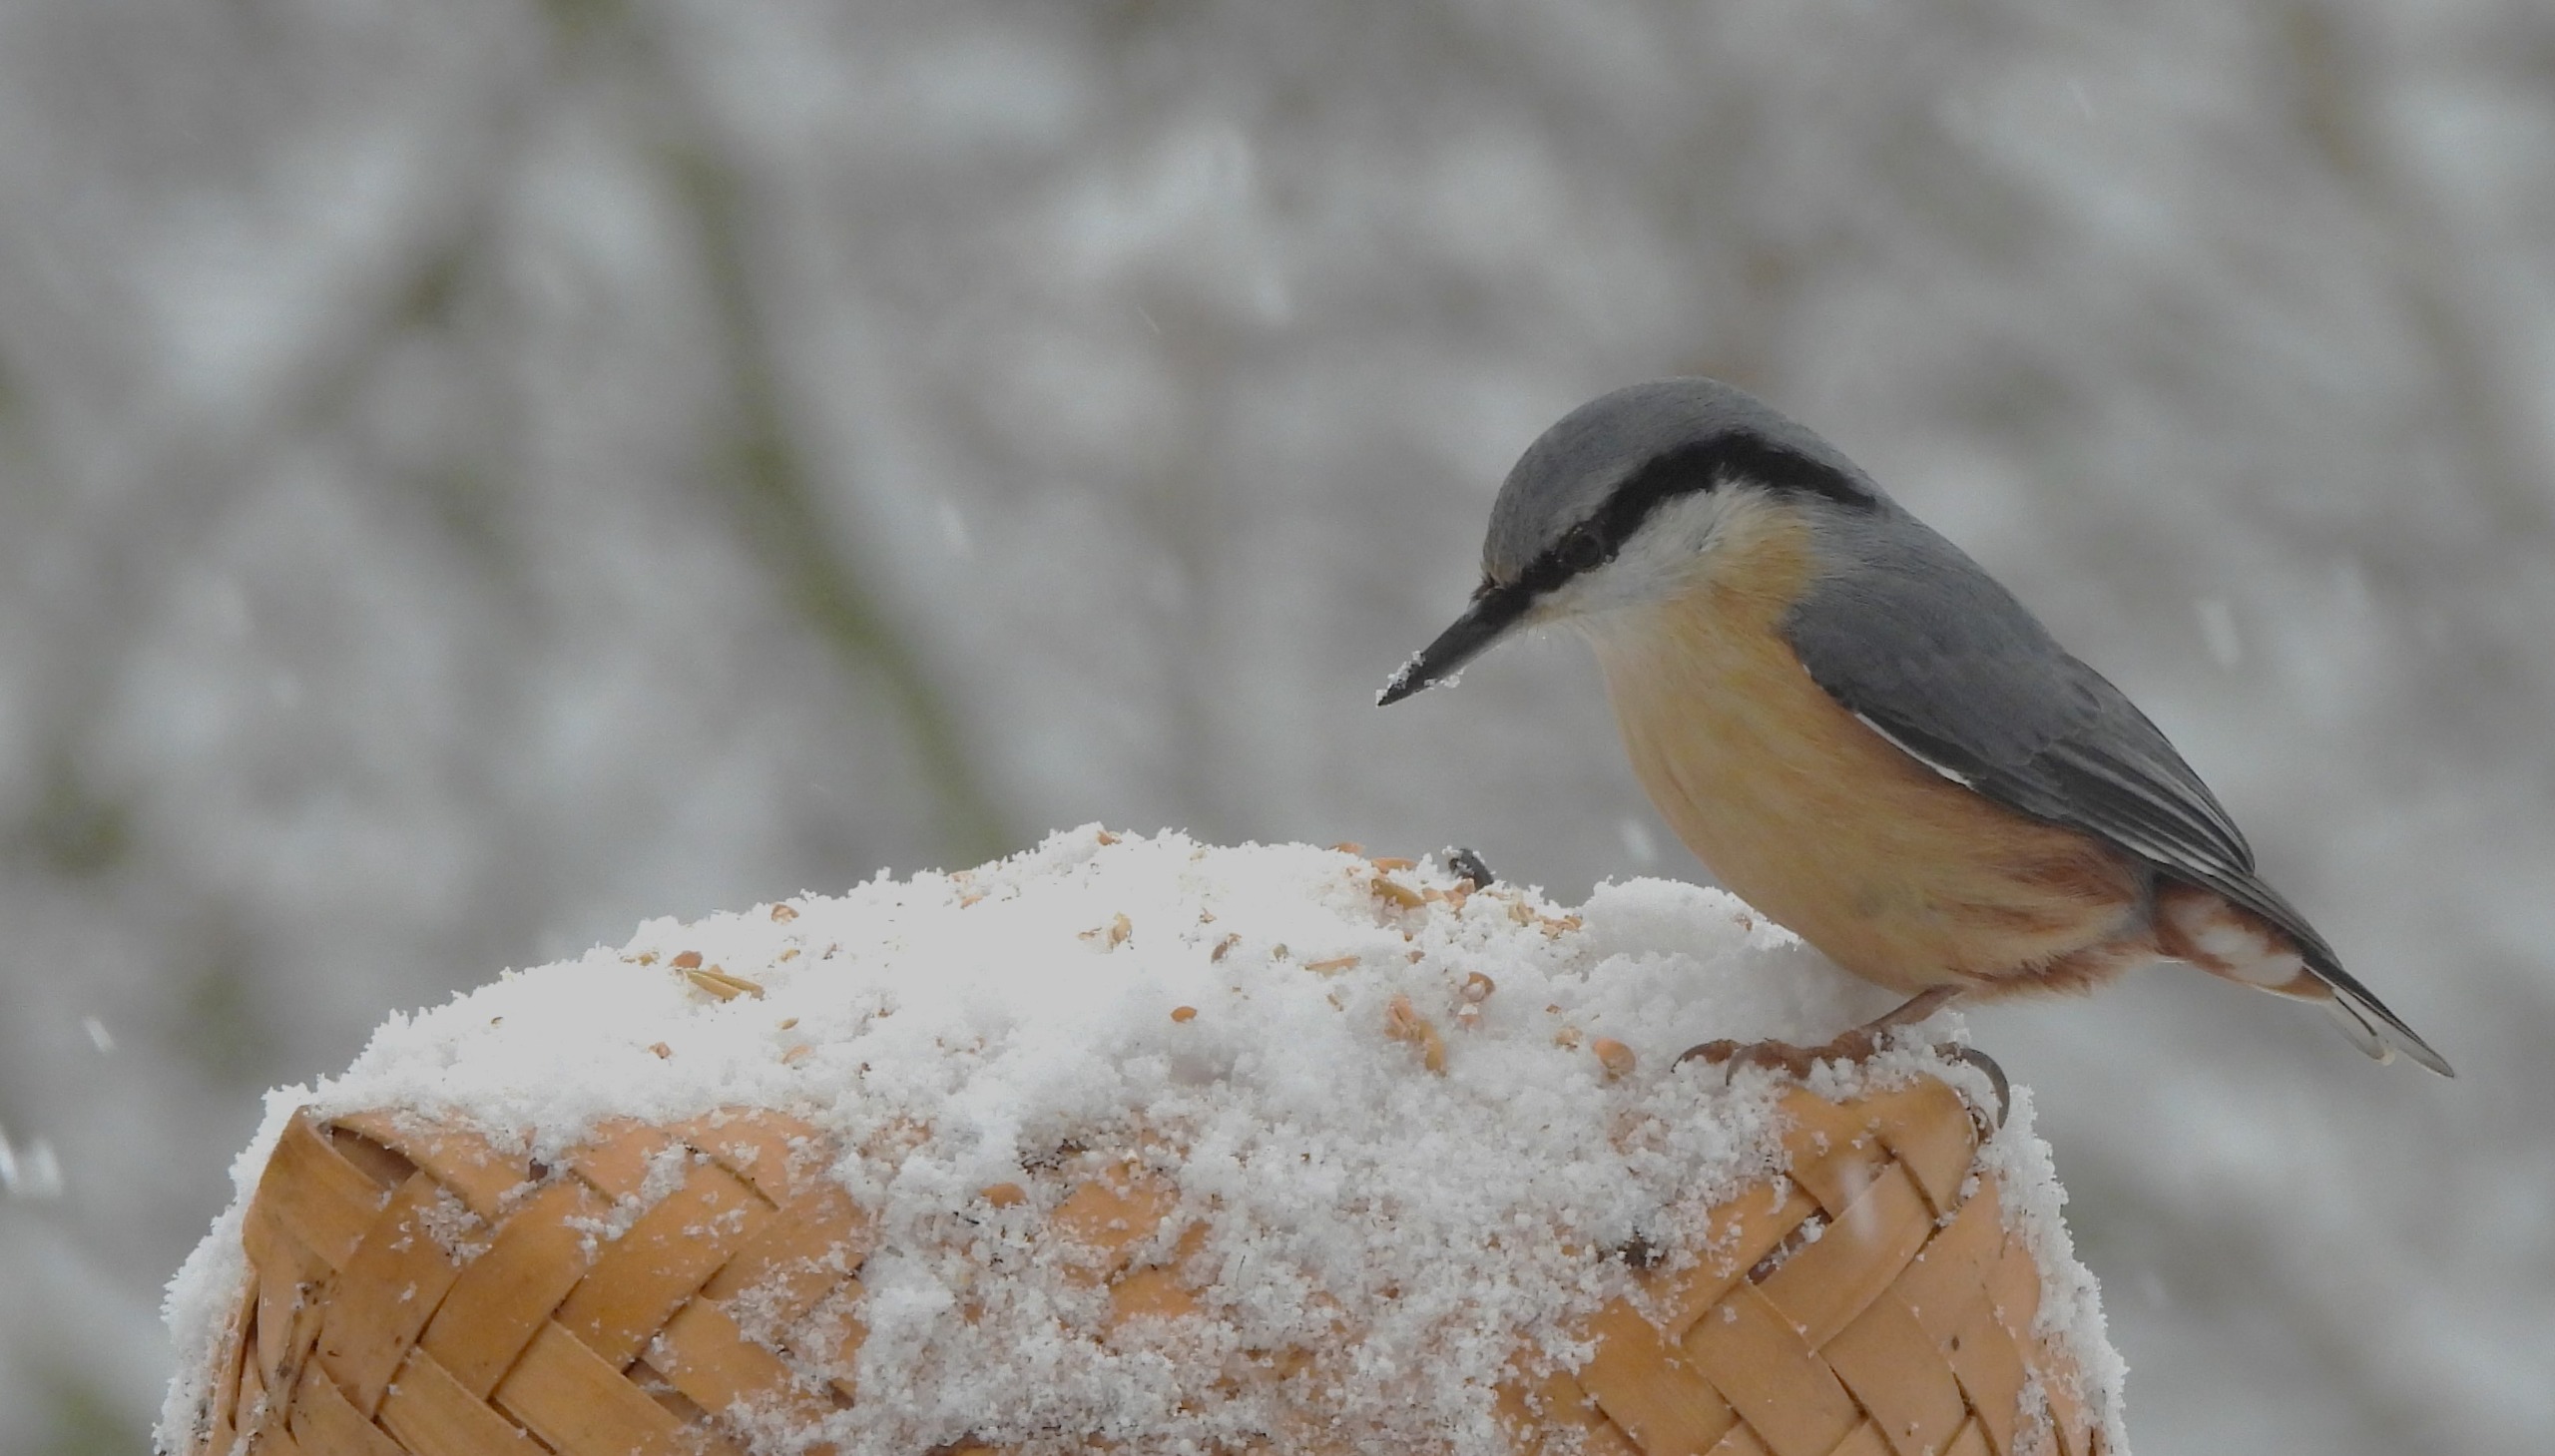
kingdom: Animalia
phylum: Chordata
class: Aves
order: Passeriformes
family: Sittidae
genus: Sitta
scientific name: Sitta europaea
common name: Spætmejse
